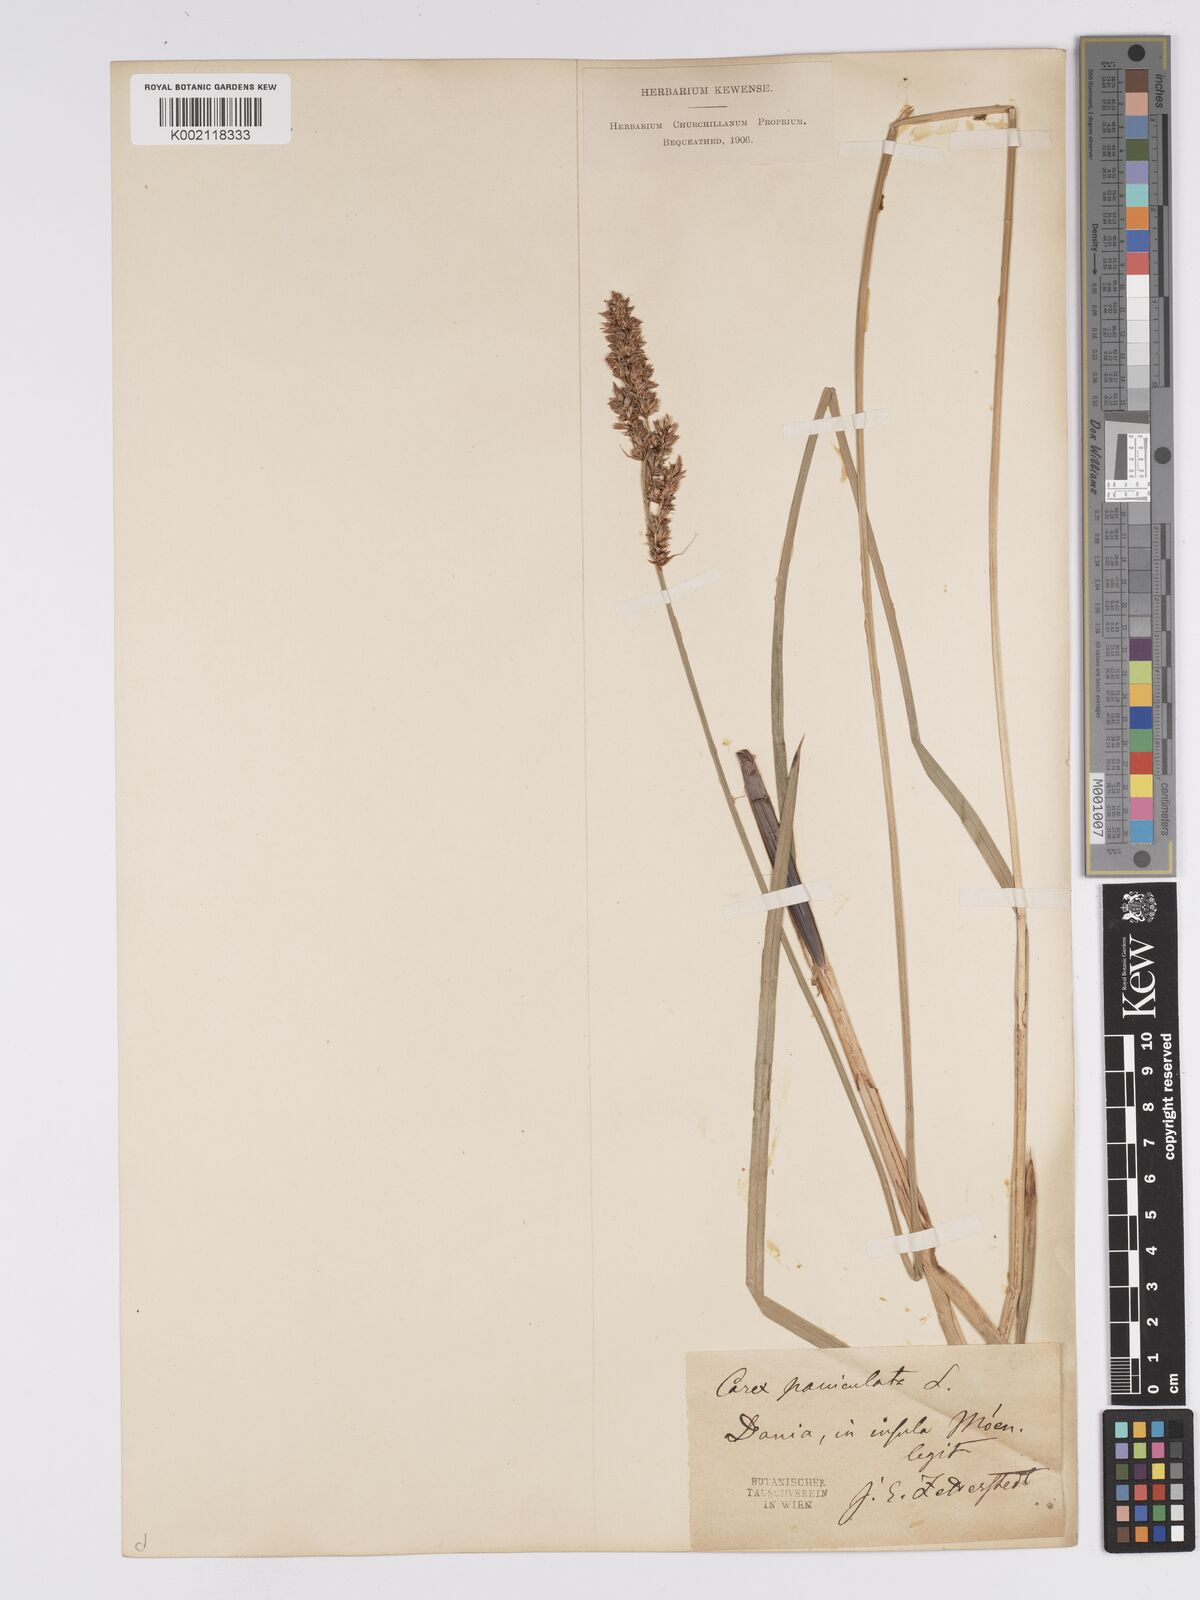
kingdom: Plantae
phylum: Tracheophyta
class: Liliopsida
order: Poales
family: Cyperaceae
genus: Carex
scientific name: Carex paniculata
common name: Greater tussock-sedge
